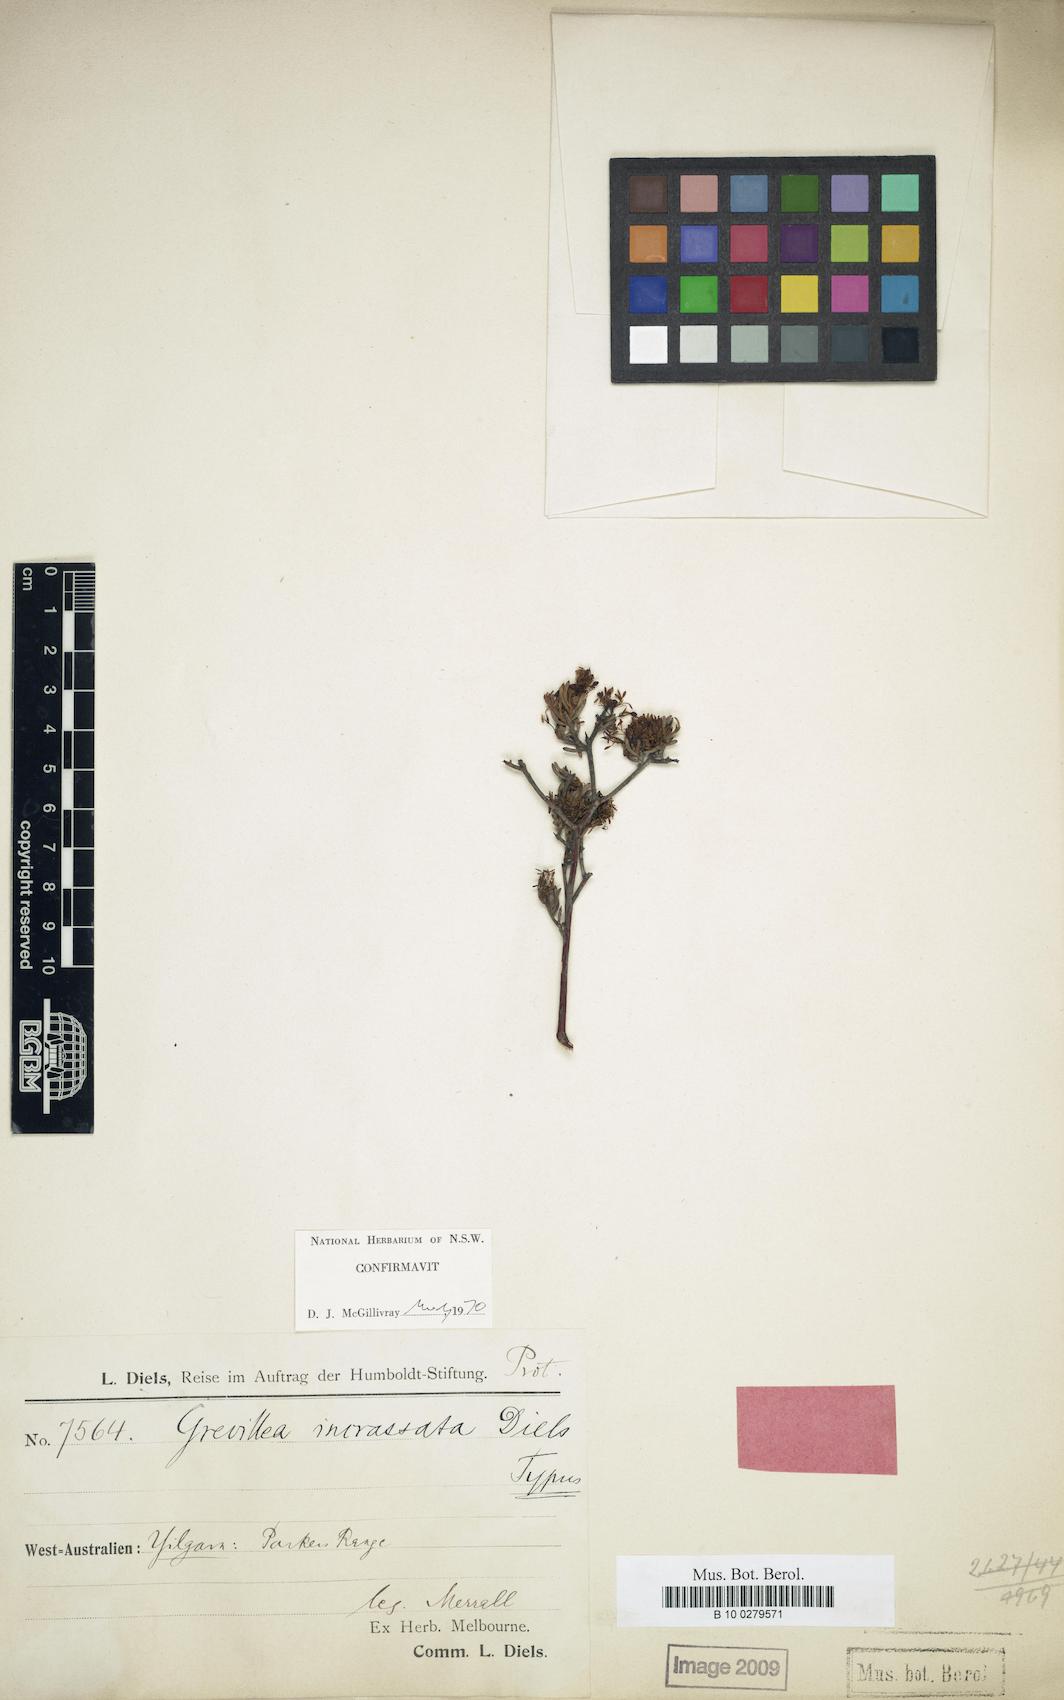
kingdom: Plantae
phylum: Tracheophyta
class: Magnoliopsida
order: Proteales
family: Proteaceae
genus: Grevillea
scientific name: Grevillea incrassata
